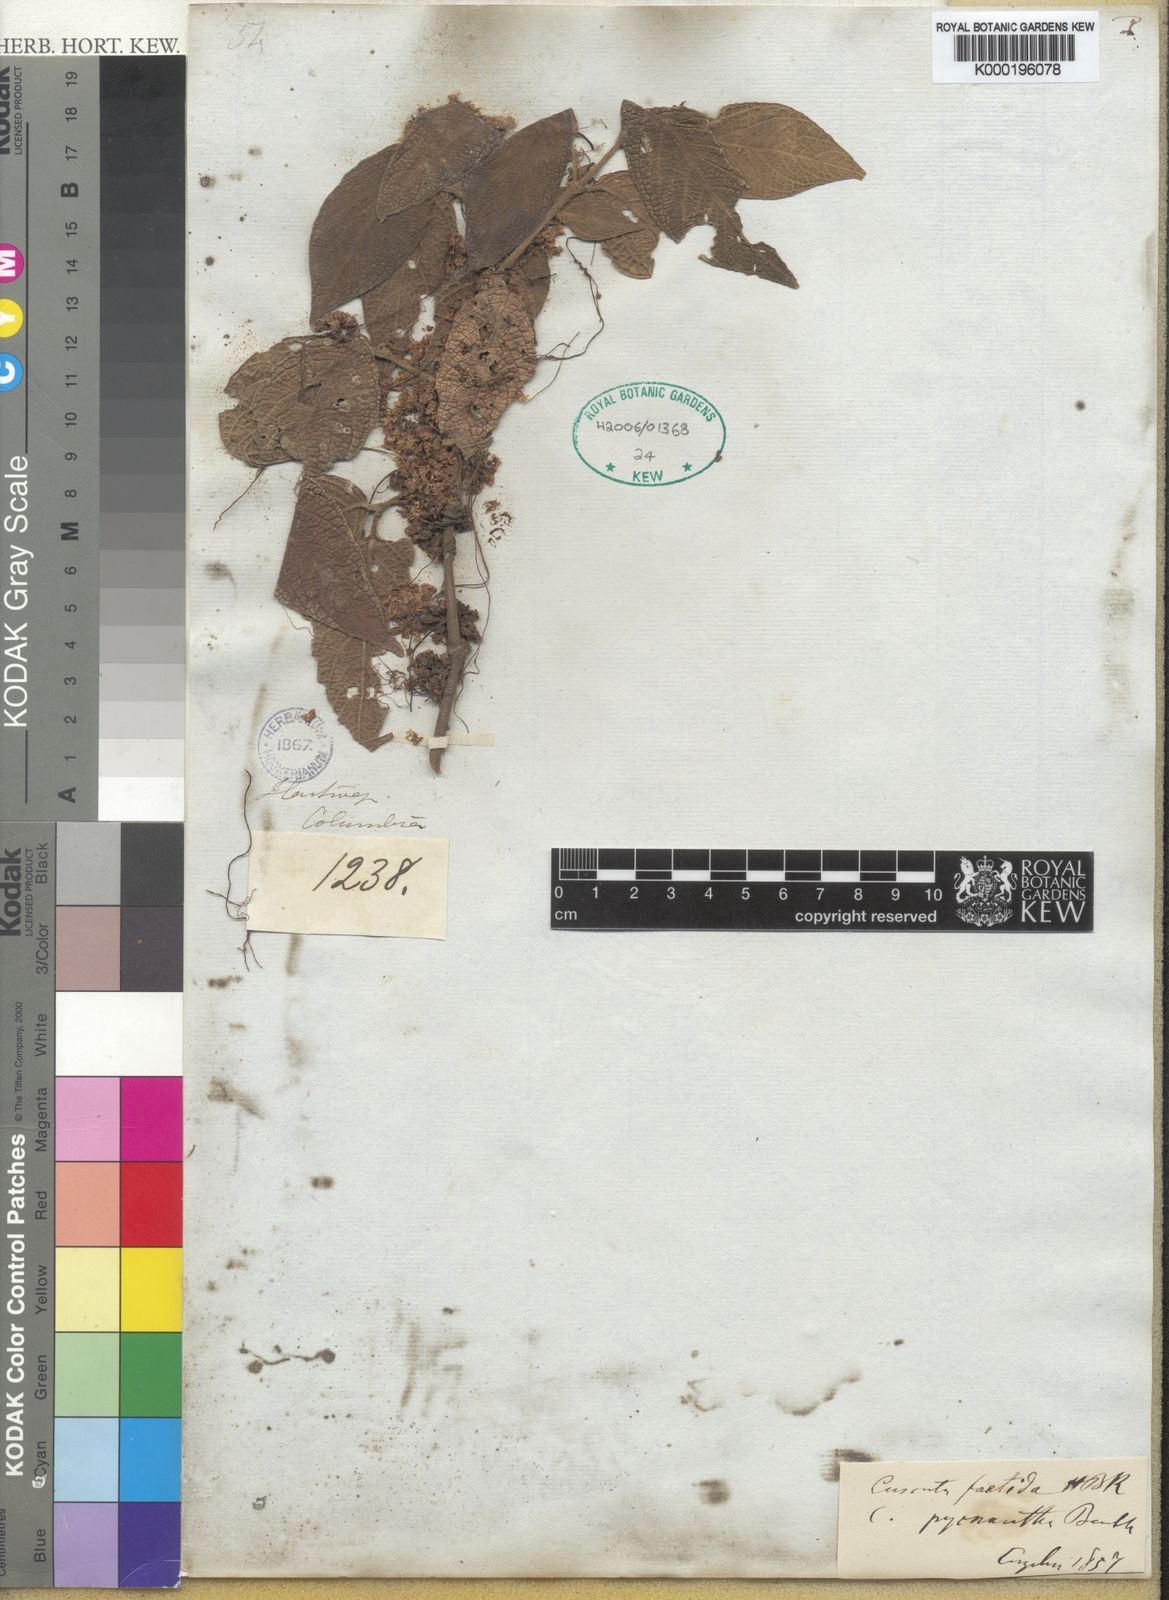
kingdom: Plantae
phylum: Tracheophyta
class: Magnoliopsida
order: Solanales
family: Convolvulaceae
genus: Cuscuta
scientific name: Cuscuta foetida
